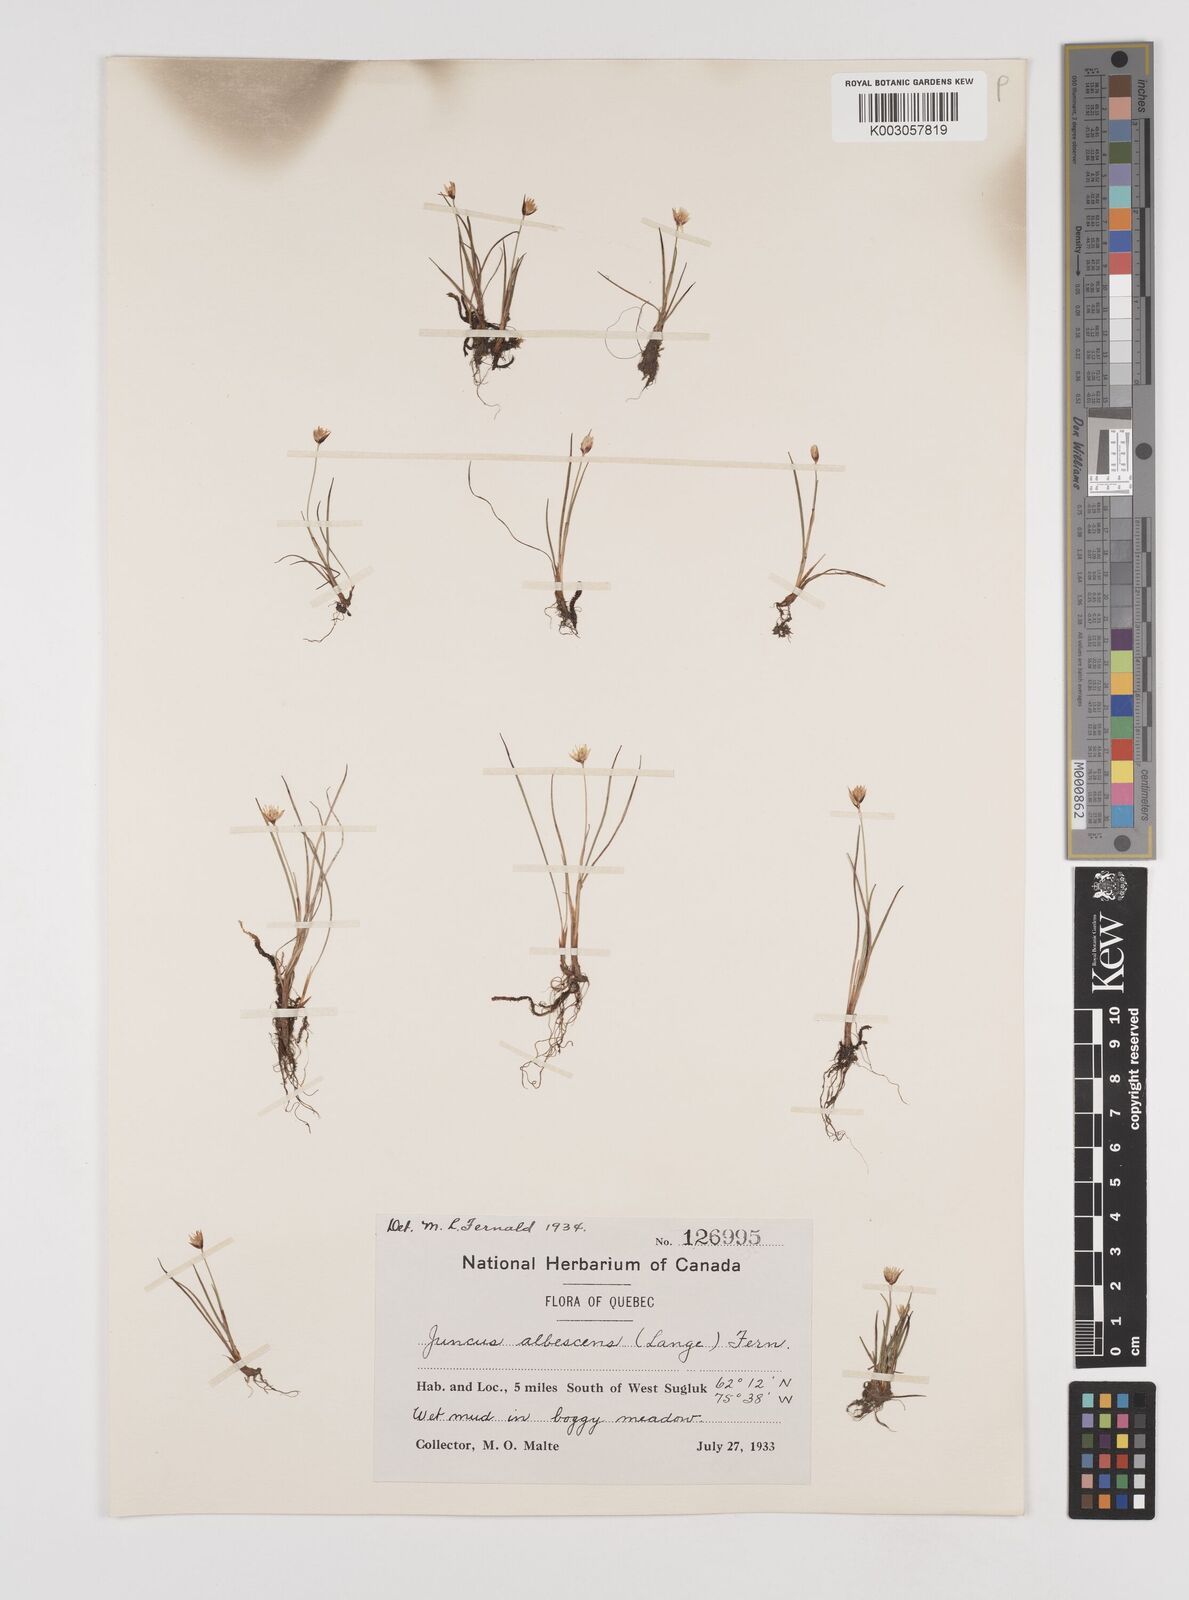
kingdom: Plantae
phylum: Tracheophyta
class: Liliopsida
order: Poales
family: Juncaceae
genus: Juncus
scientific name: Juncus albescens
